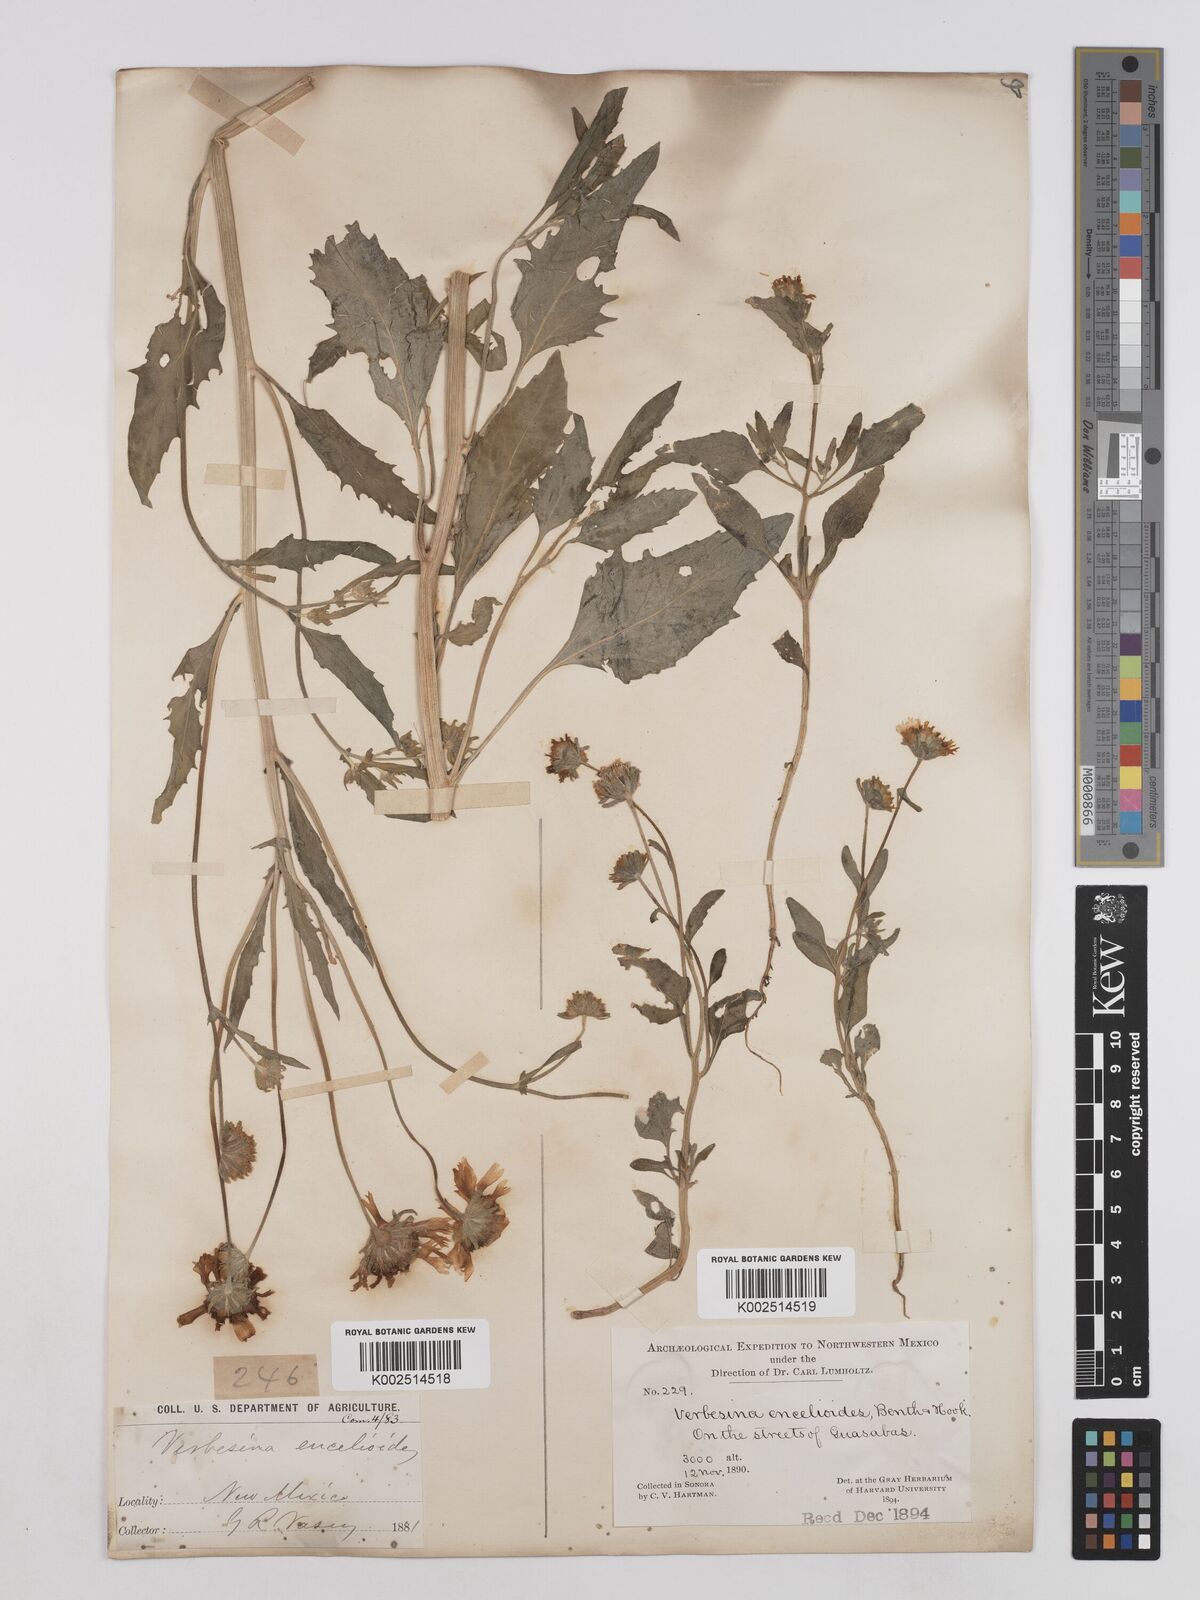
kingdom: Plantae
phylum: Tracheophyta
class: Magnoliopsida
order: Asterales
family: Asteraceae
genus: Verbesina
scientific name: Verbesina encelioides
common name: Golden crownbeard
